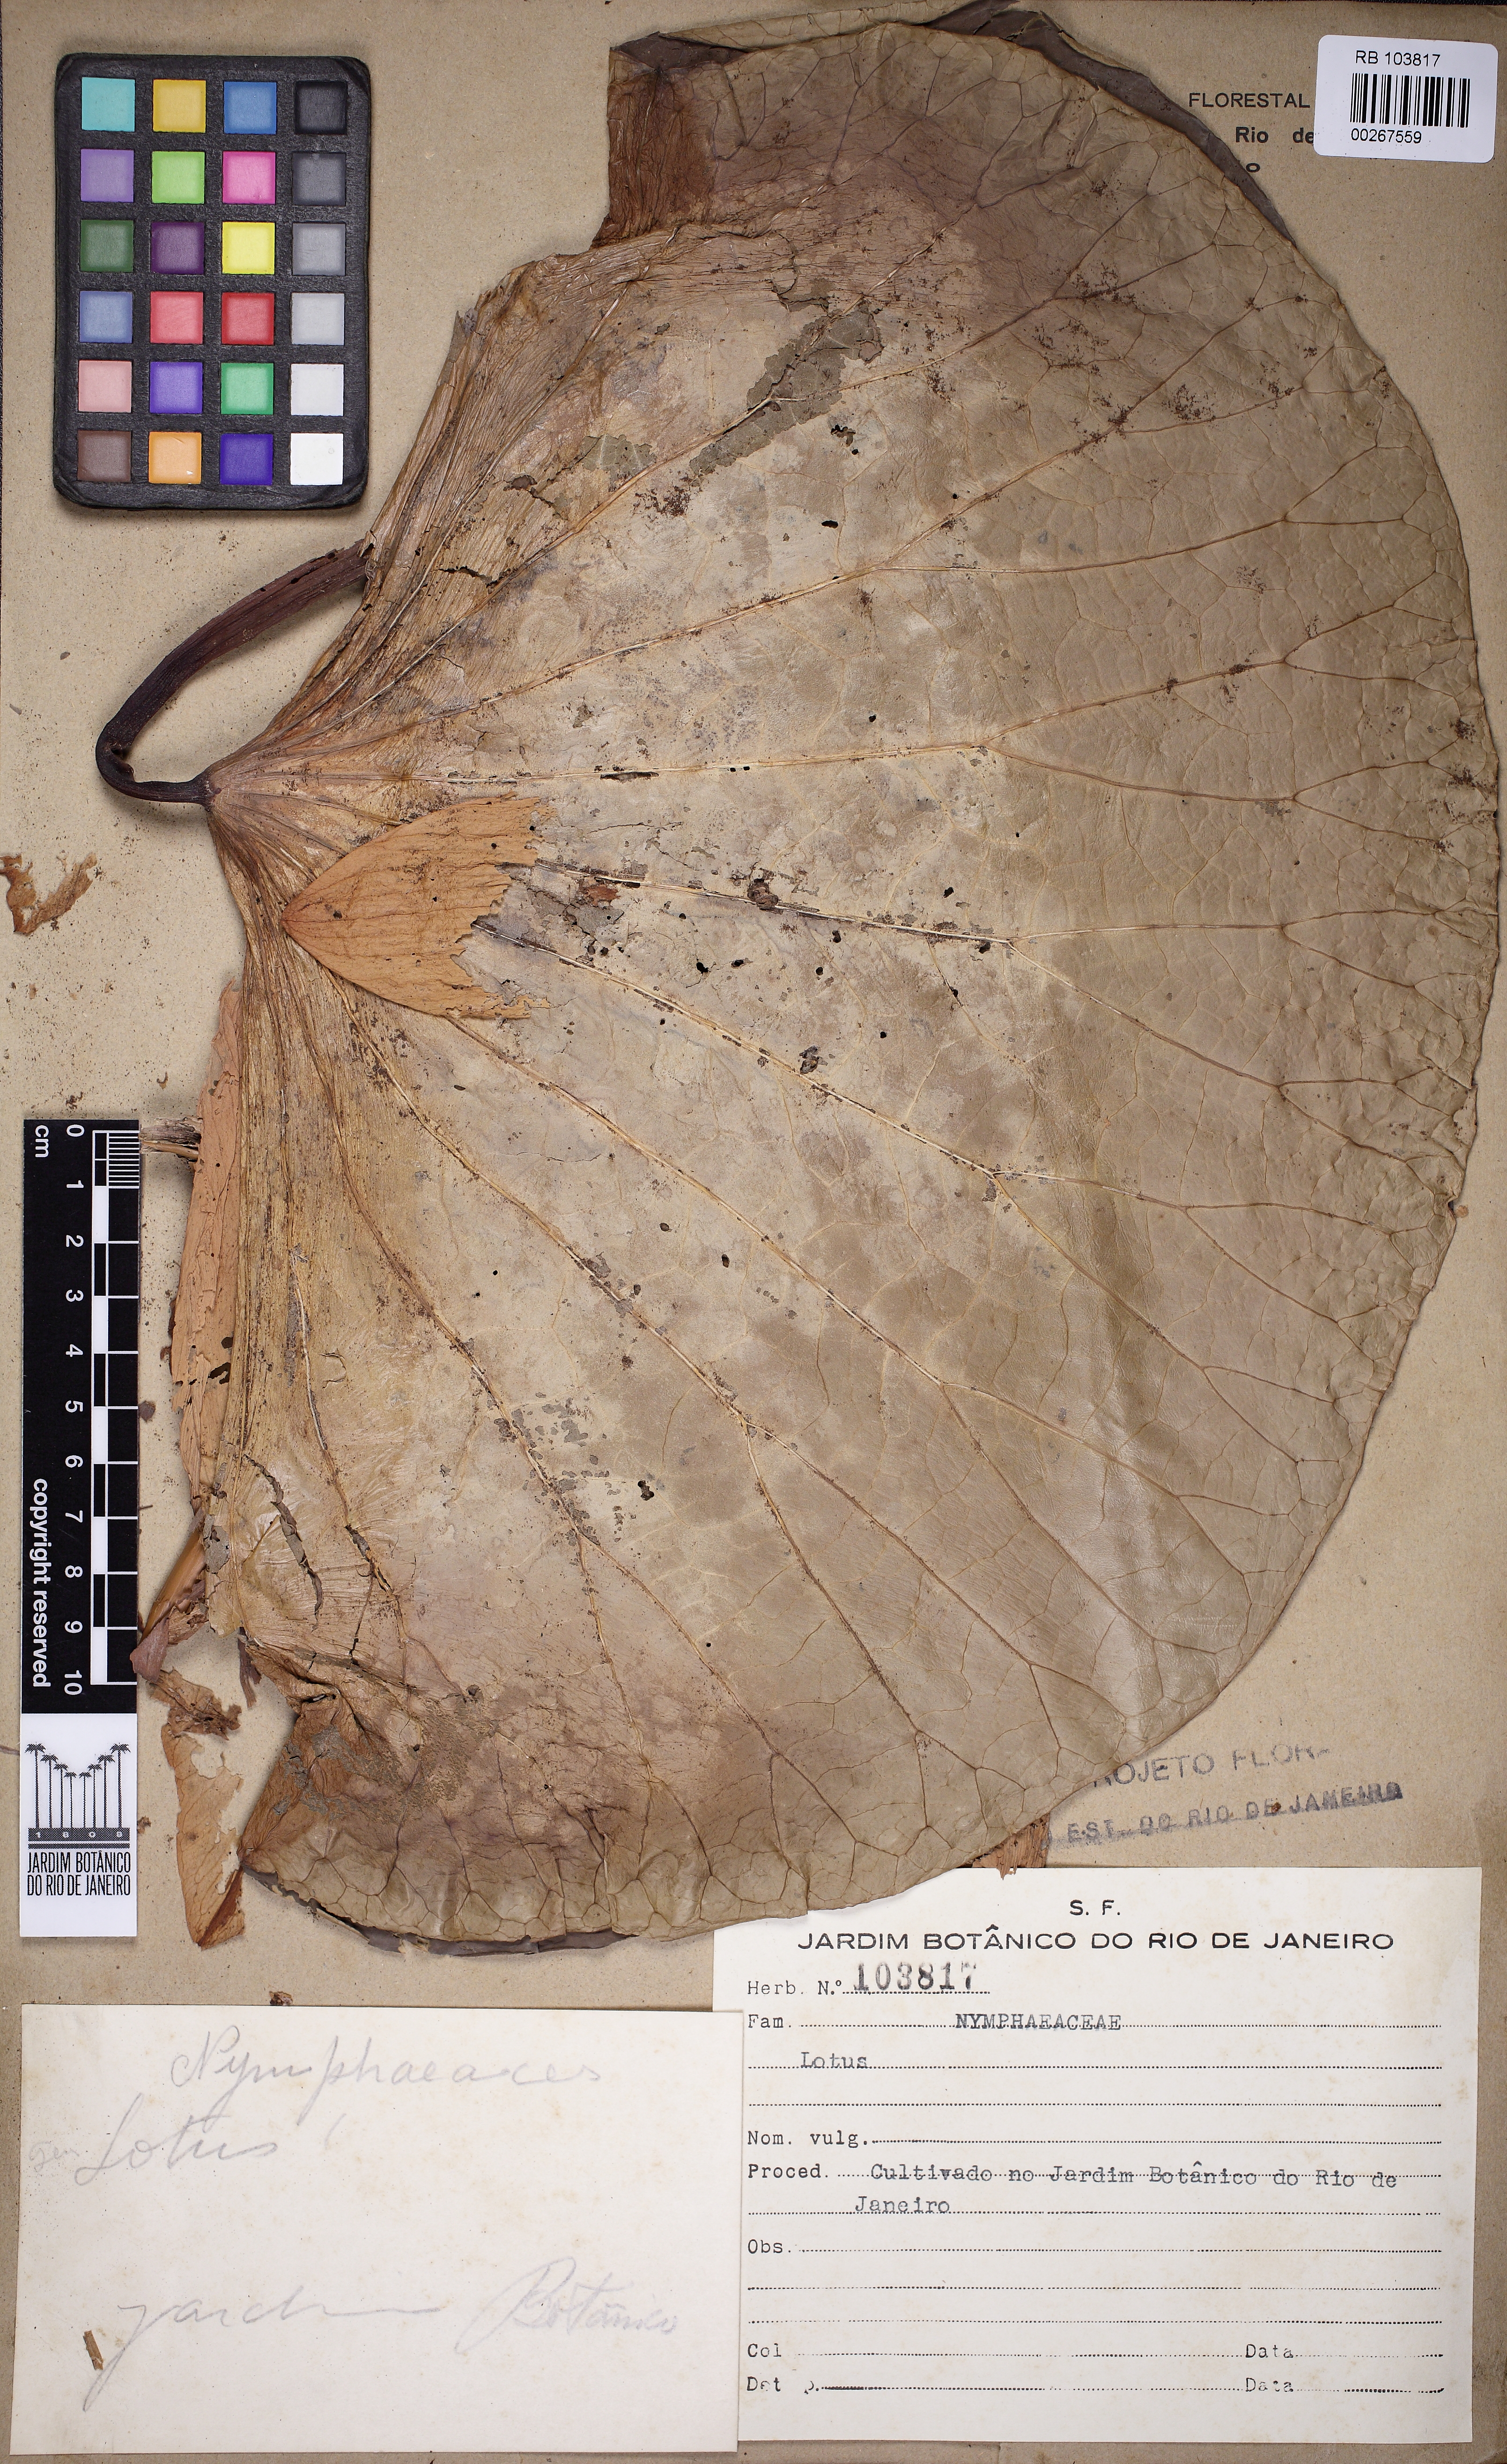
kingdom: Plantae
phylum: Tracheophyta
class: Magnoliopsida
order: Fabales
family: Fabaceae
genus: Lotus
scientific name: Lotus
